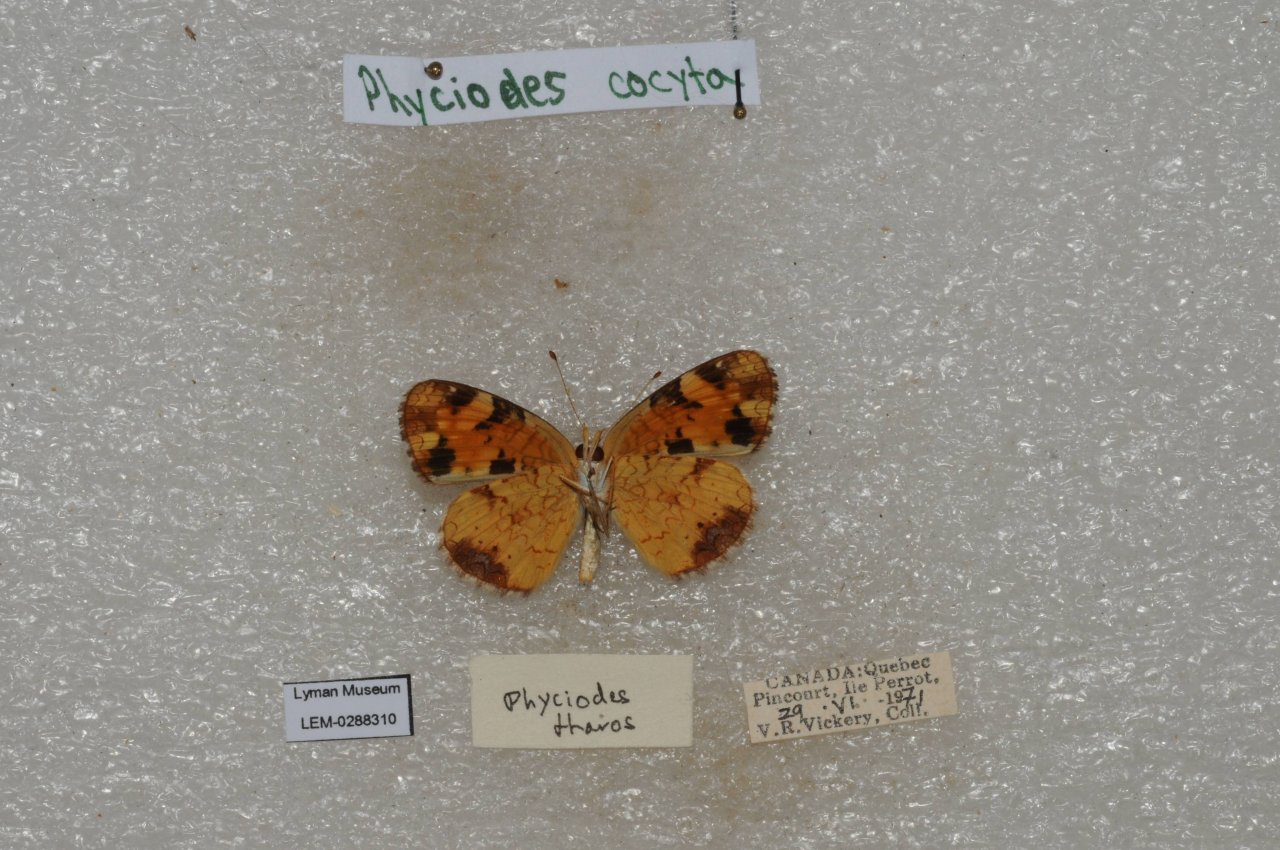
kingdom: Animalia
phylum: Arthropoda
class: Insecta
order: Lepidoptera
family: Nymphalidae
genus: Phyciodes
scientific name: Phyciodes tharos
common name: Northern Crescent
